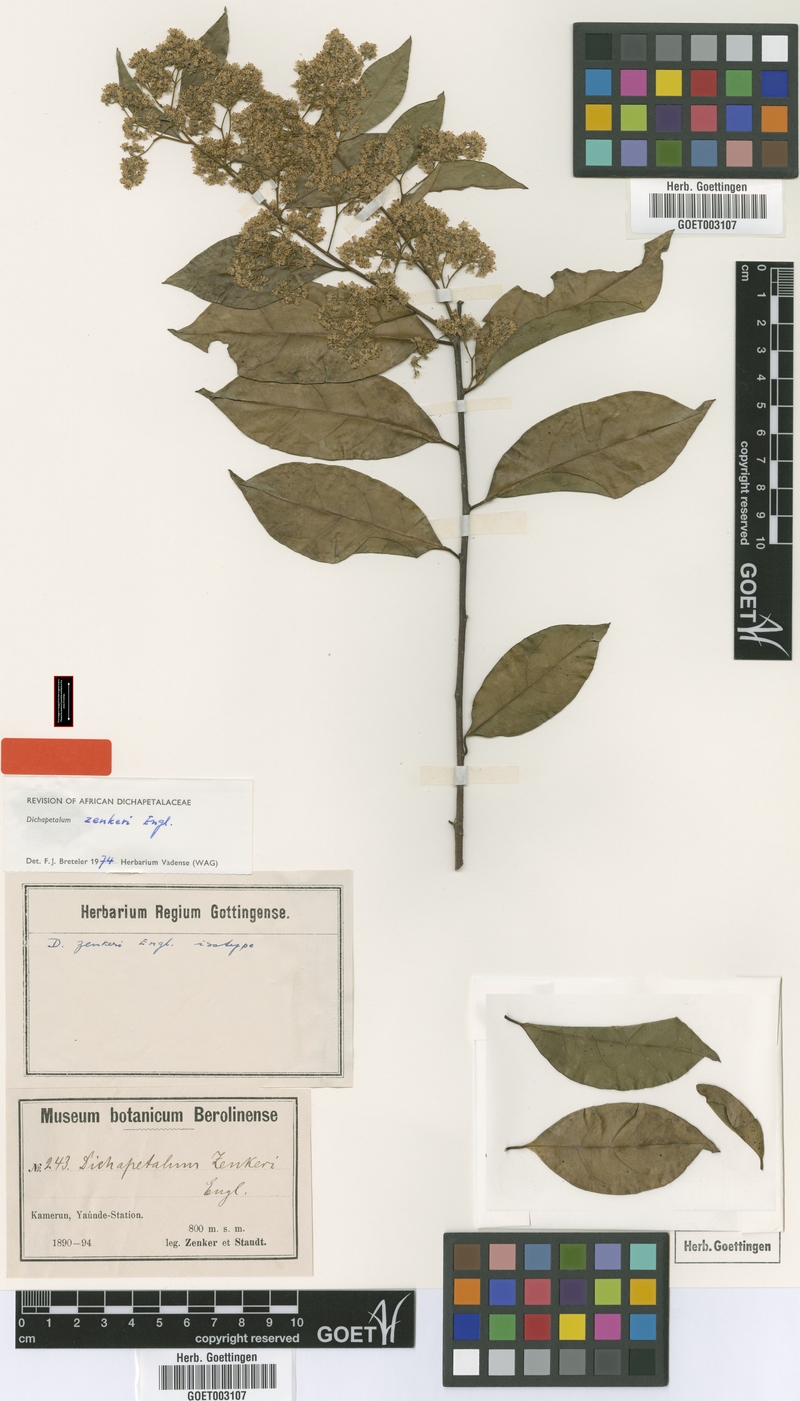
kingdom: Plantae
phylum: Tracheophyta
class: Magnoliopsida
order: Malpighiales
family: Dichapetalaceae
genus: Dichapetalum
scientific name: Dichapetalum zenkeri
